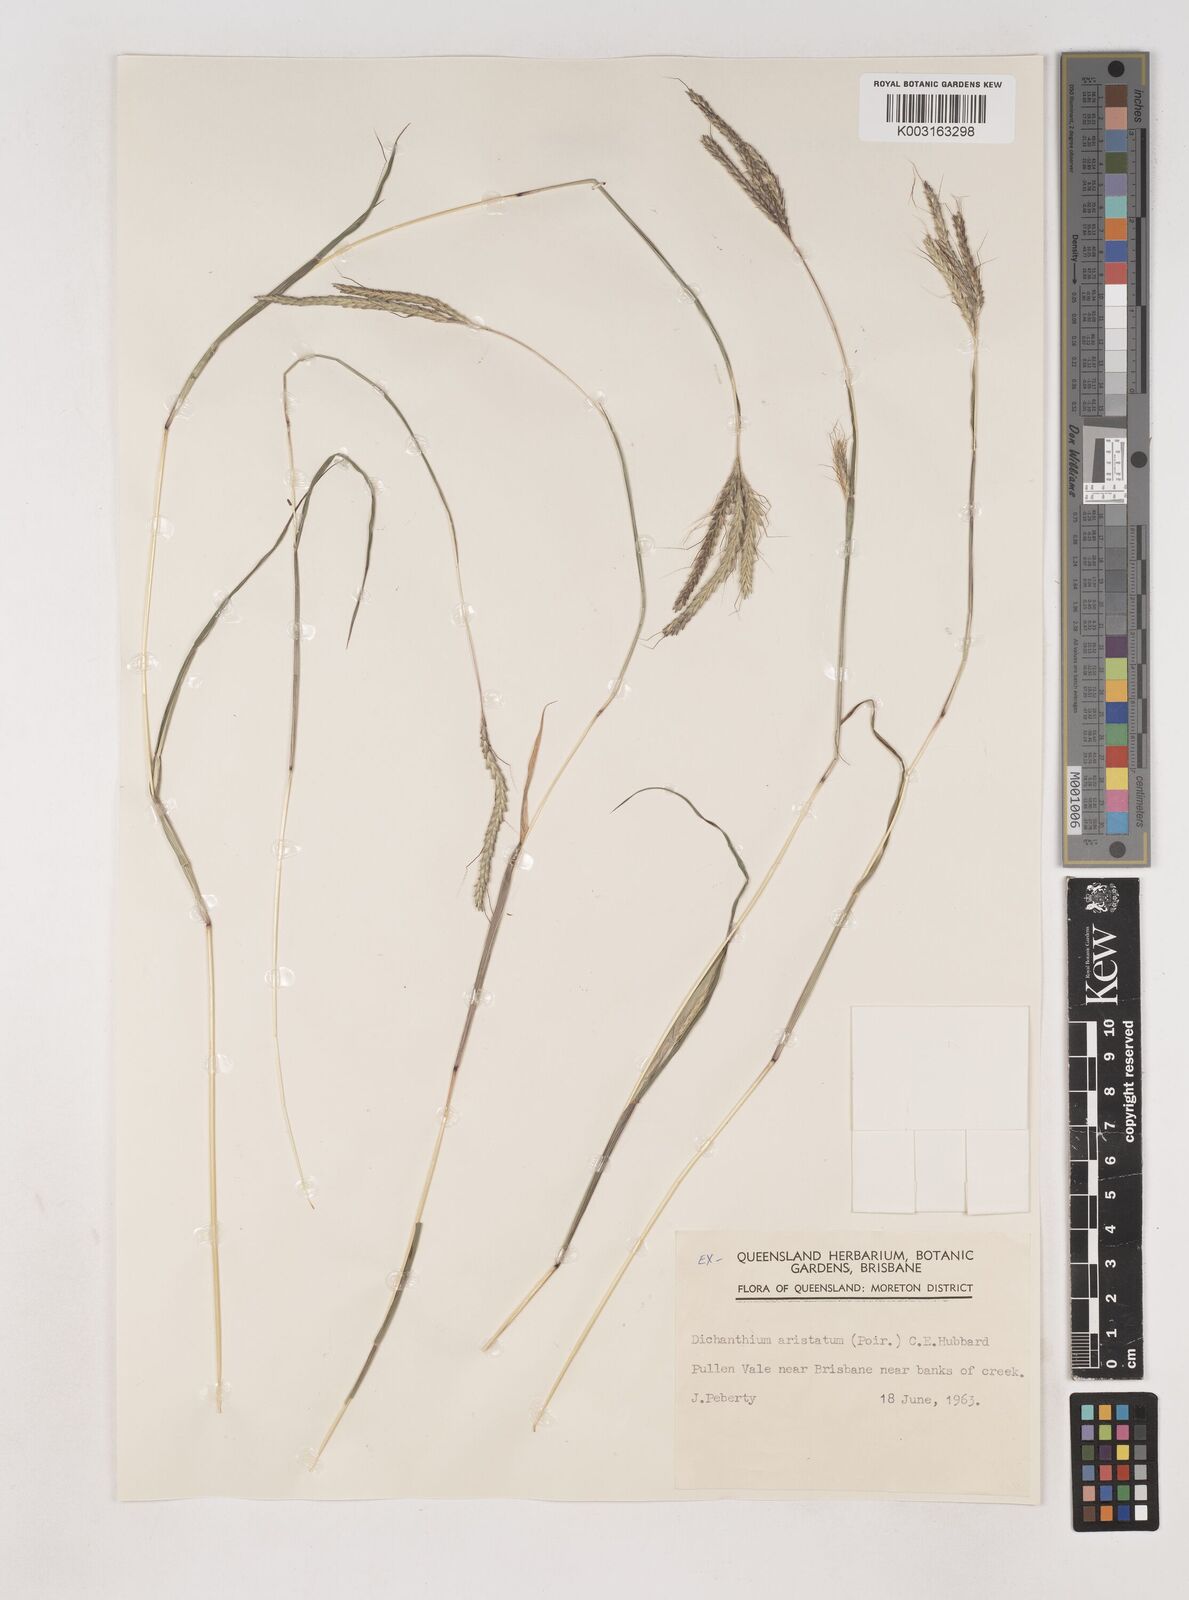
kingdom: Plantae
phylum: Tracheophyta
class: Liliopsida
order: Poales
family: Poaceae
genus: Dichanthium
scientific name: Dichanthium aristatum
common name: Angleton bluestem
